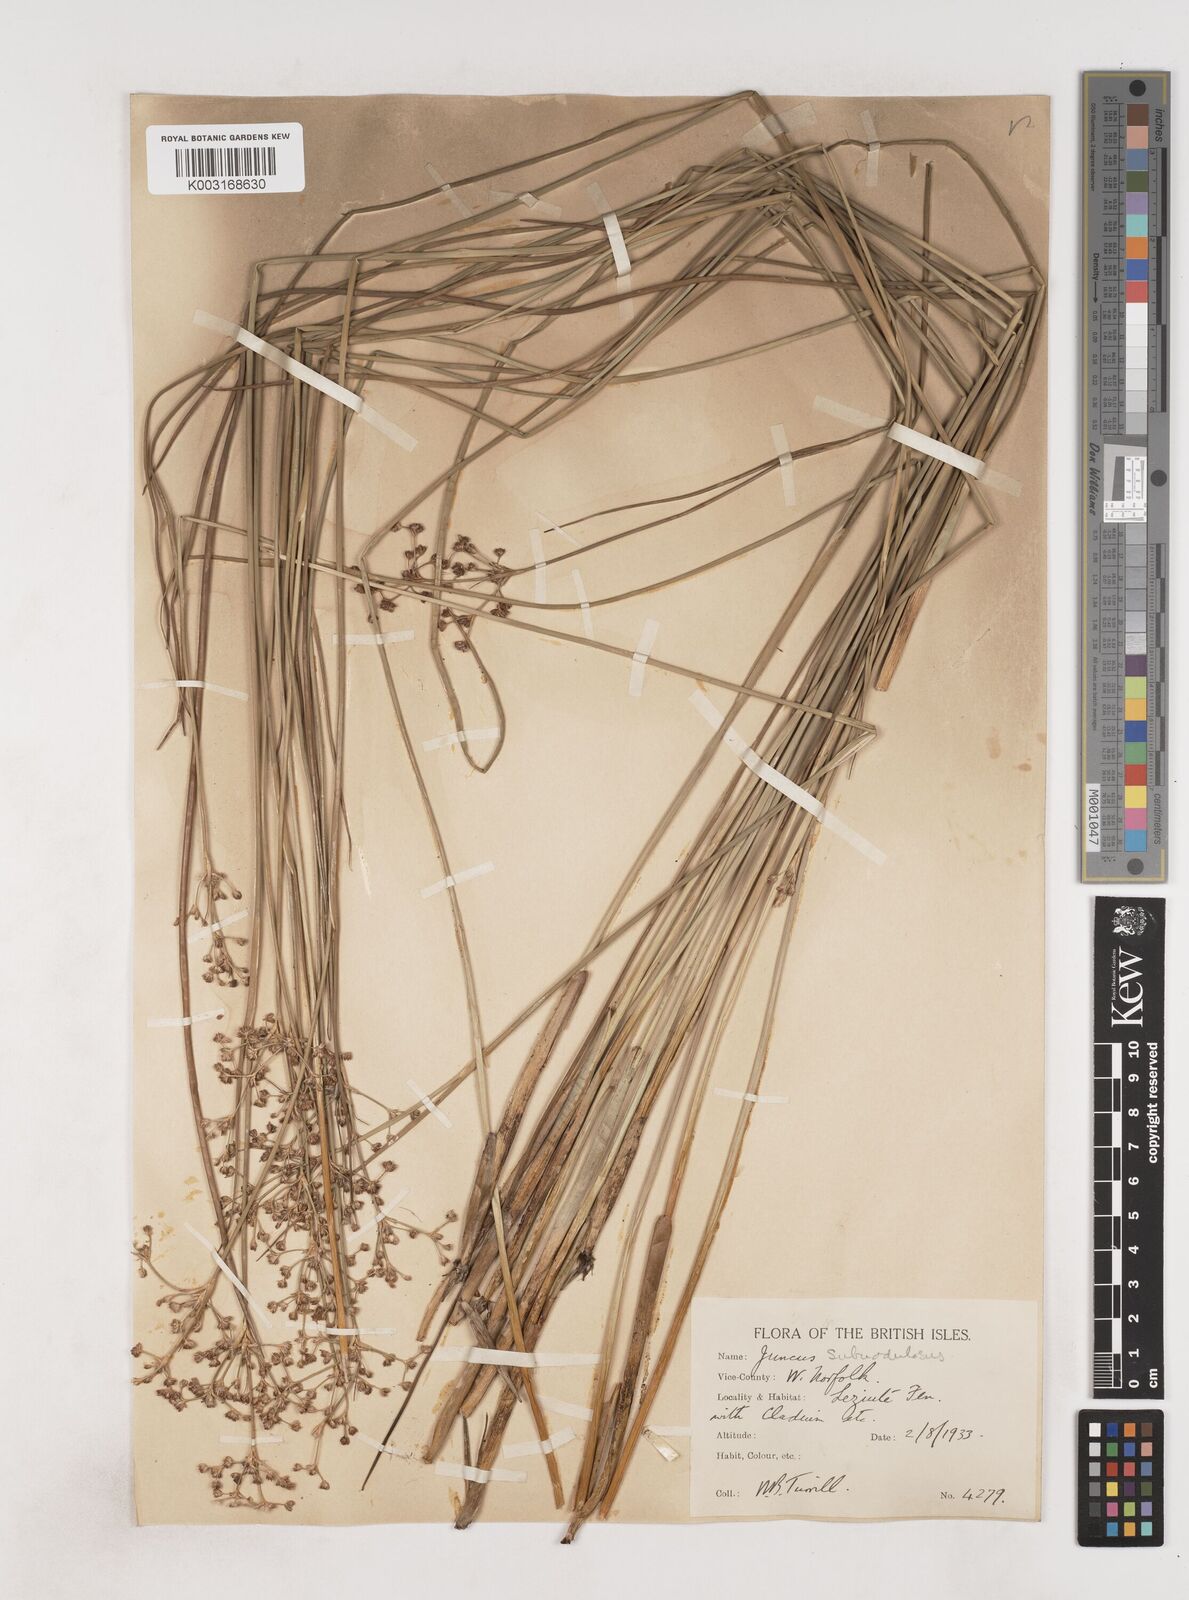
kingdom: Plantae
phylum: Tracheophyta
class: Liliopsida
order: Poales
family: Juncaceae
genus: Juncus
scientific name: Juncus subnodulosus
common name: Blunt-flowered rush
